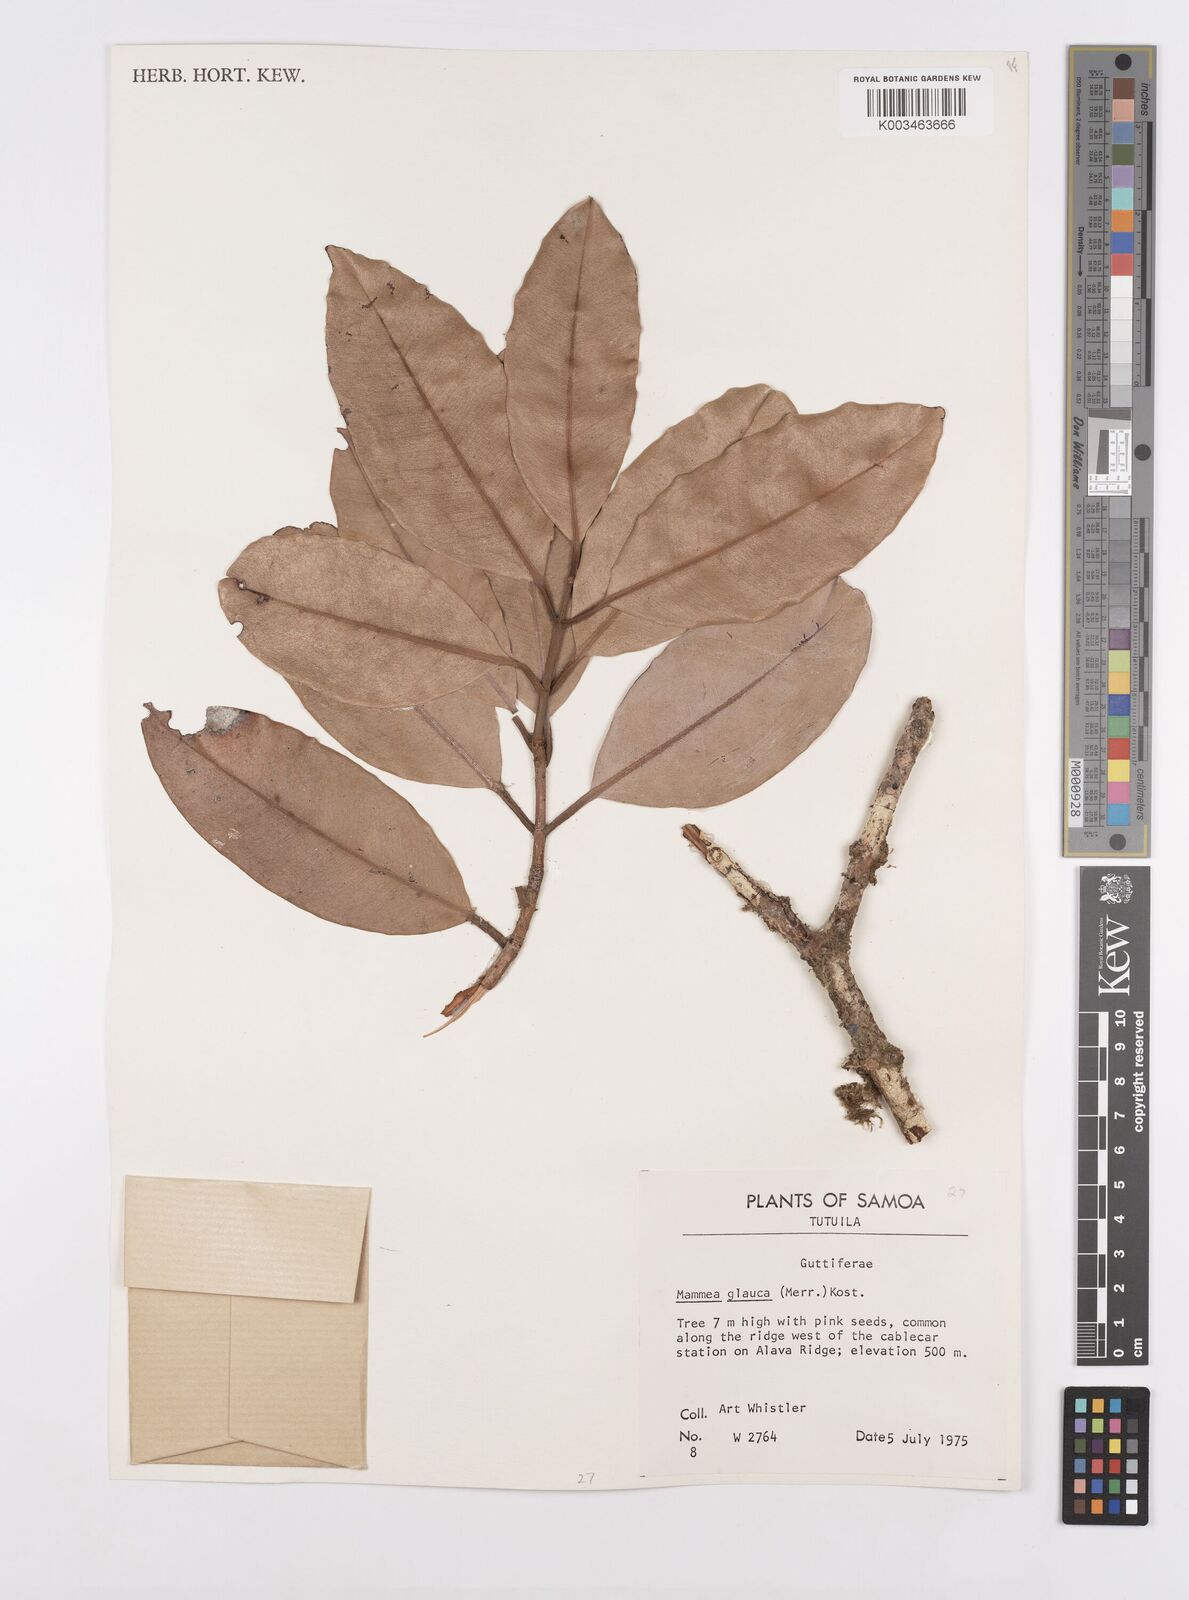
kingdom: Plantae
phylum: Tracheophyta
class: Magnoliopsida
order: Malpighiales
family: Calophyllaceae
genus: Mammea
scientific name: Mammea glauca
